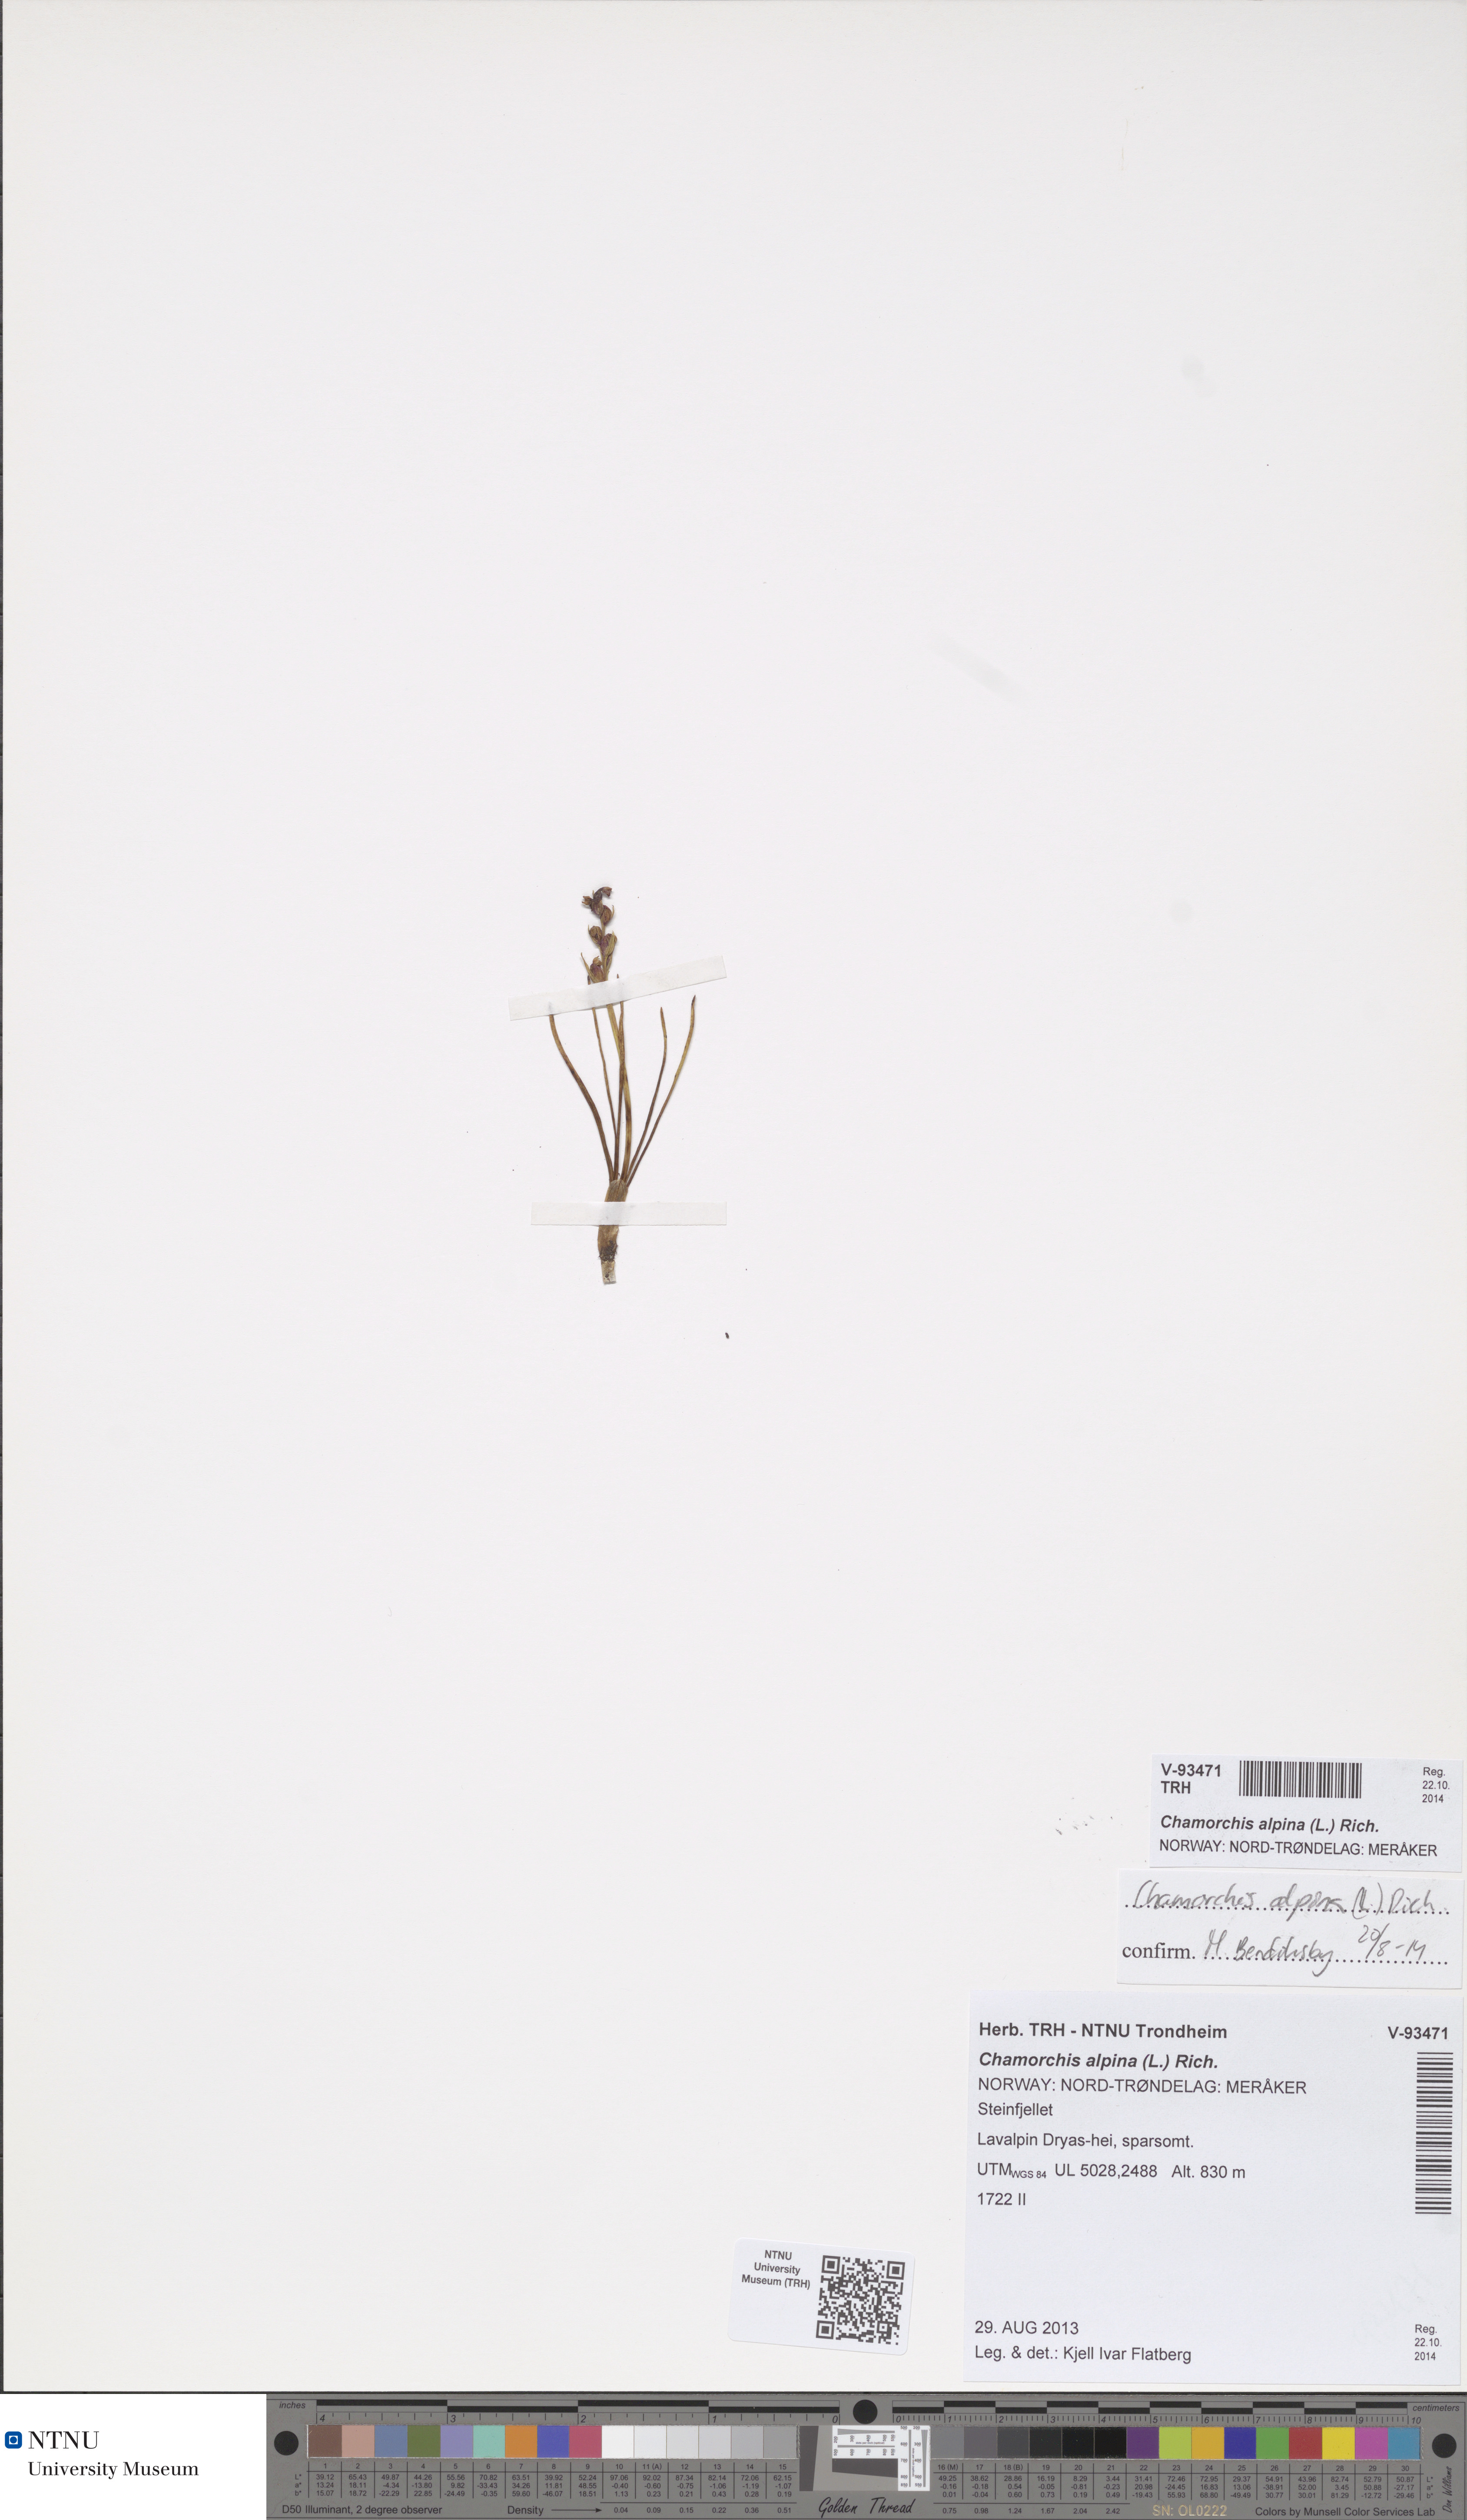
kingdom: Plantae
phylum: Tracheophyta
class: Liliopsida
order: Asparagales
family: Orchidaceae
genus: Chamorchis
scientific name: Chamorchis alpina
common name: Alpine chamorchis
